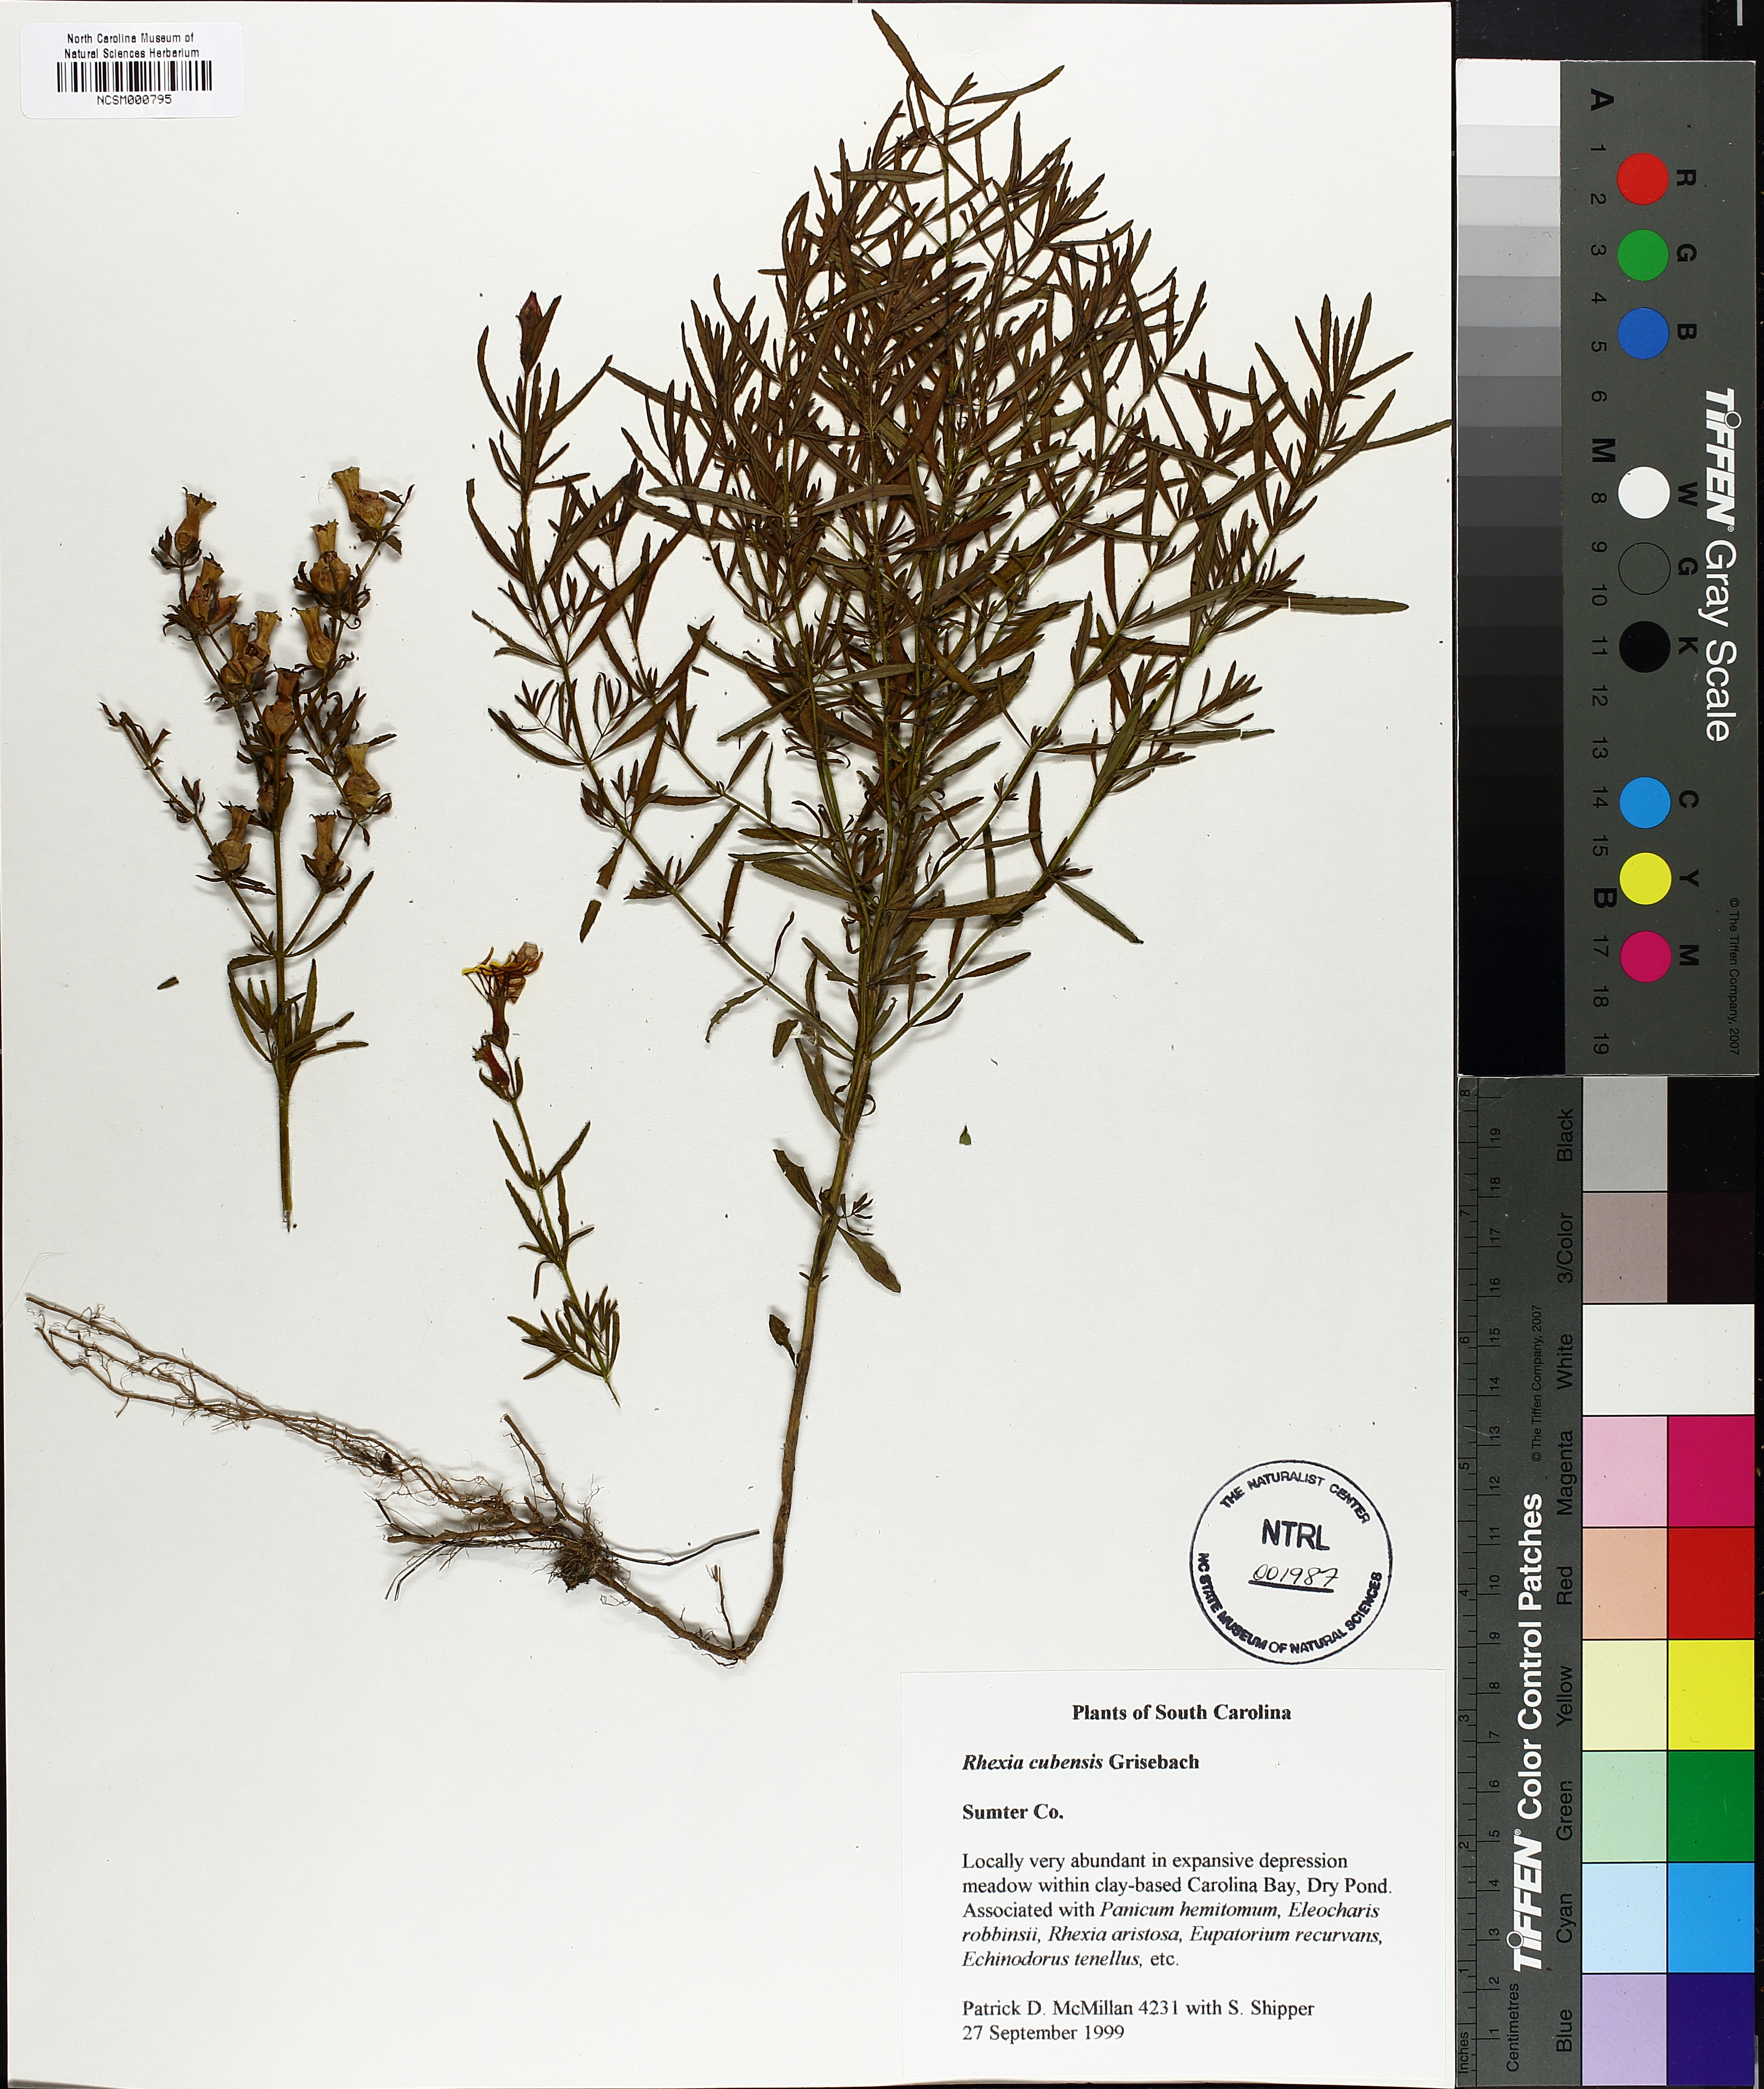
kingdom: Plantae
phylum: Tracheophyta
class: Magnoliopsida
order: Myrtales
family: Melastomataceae
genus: Rhexia
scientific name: Rhexia cubensis
